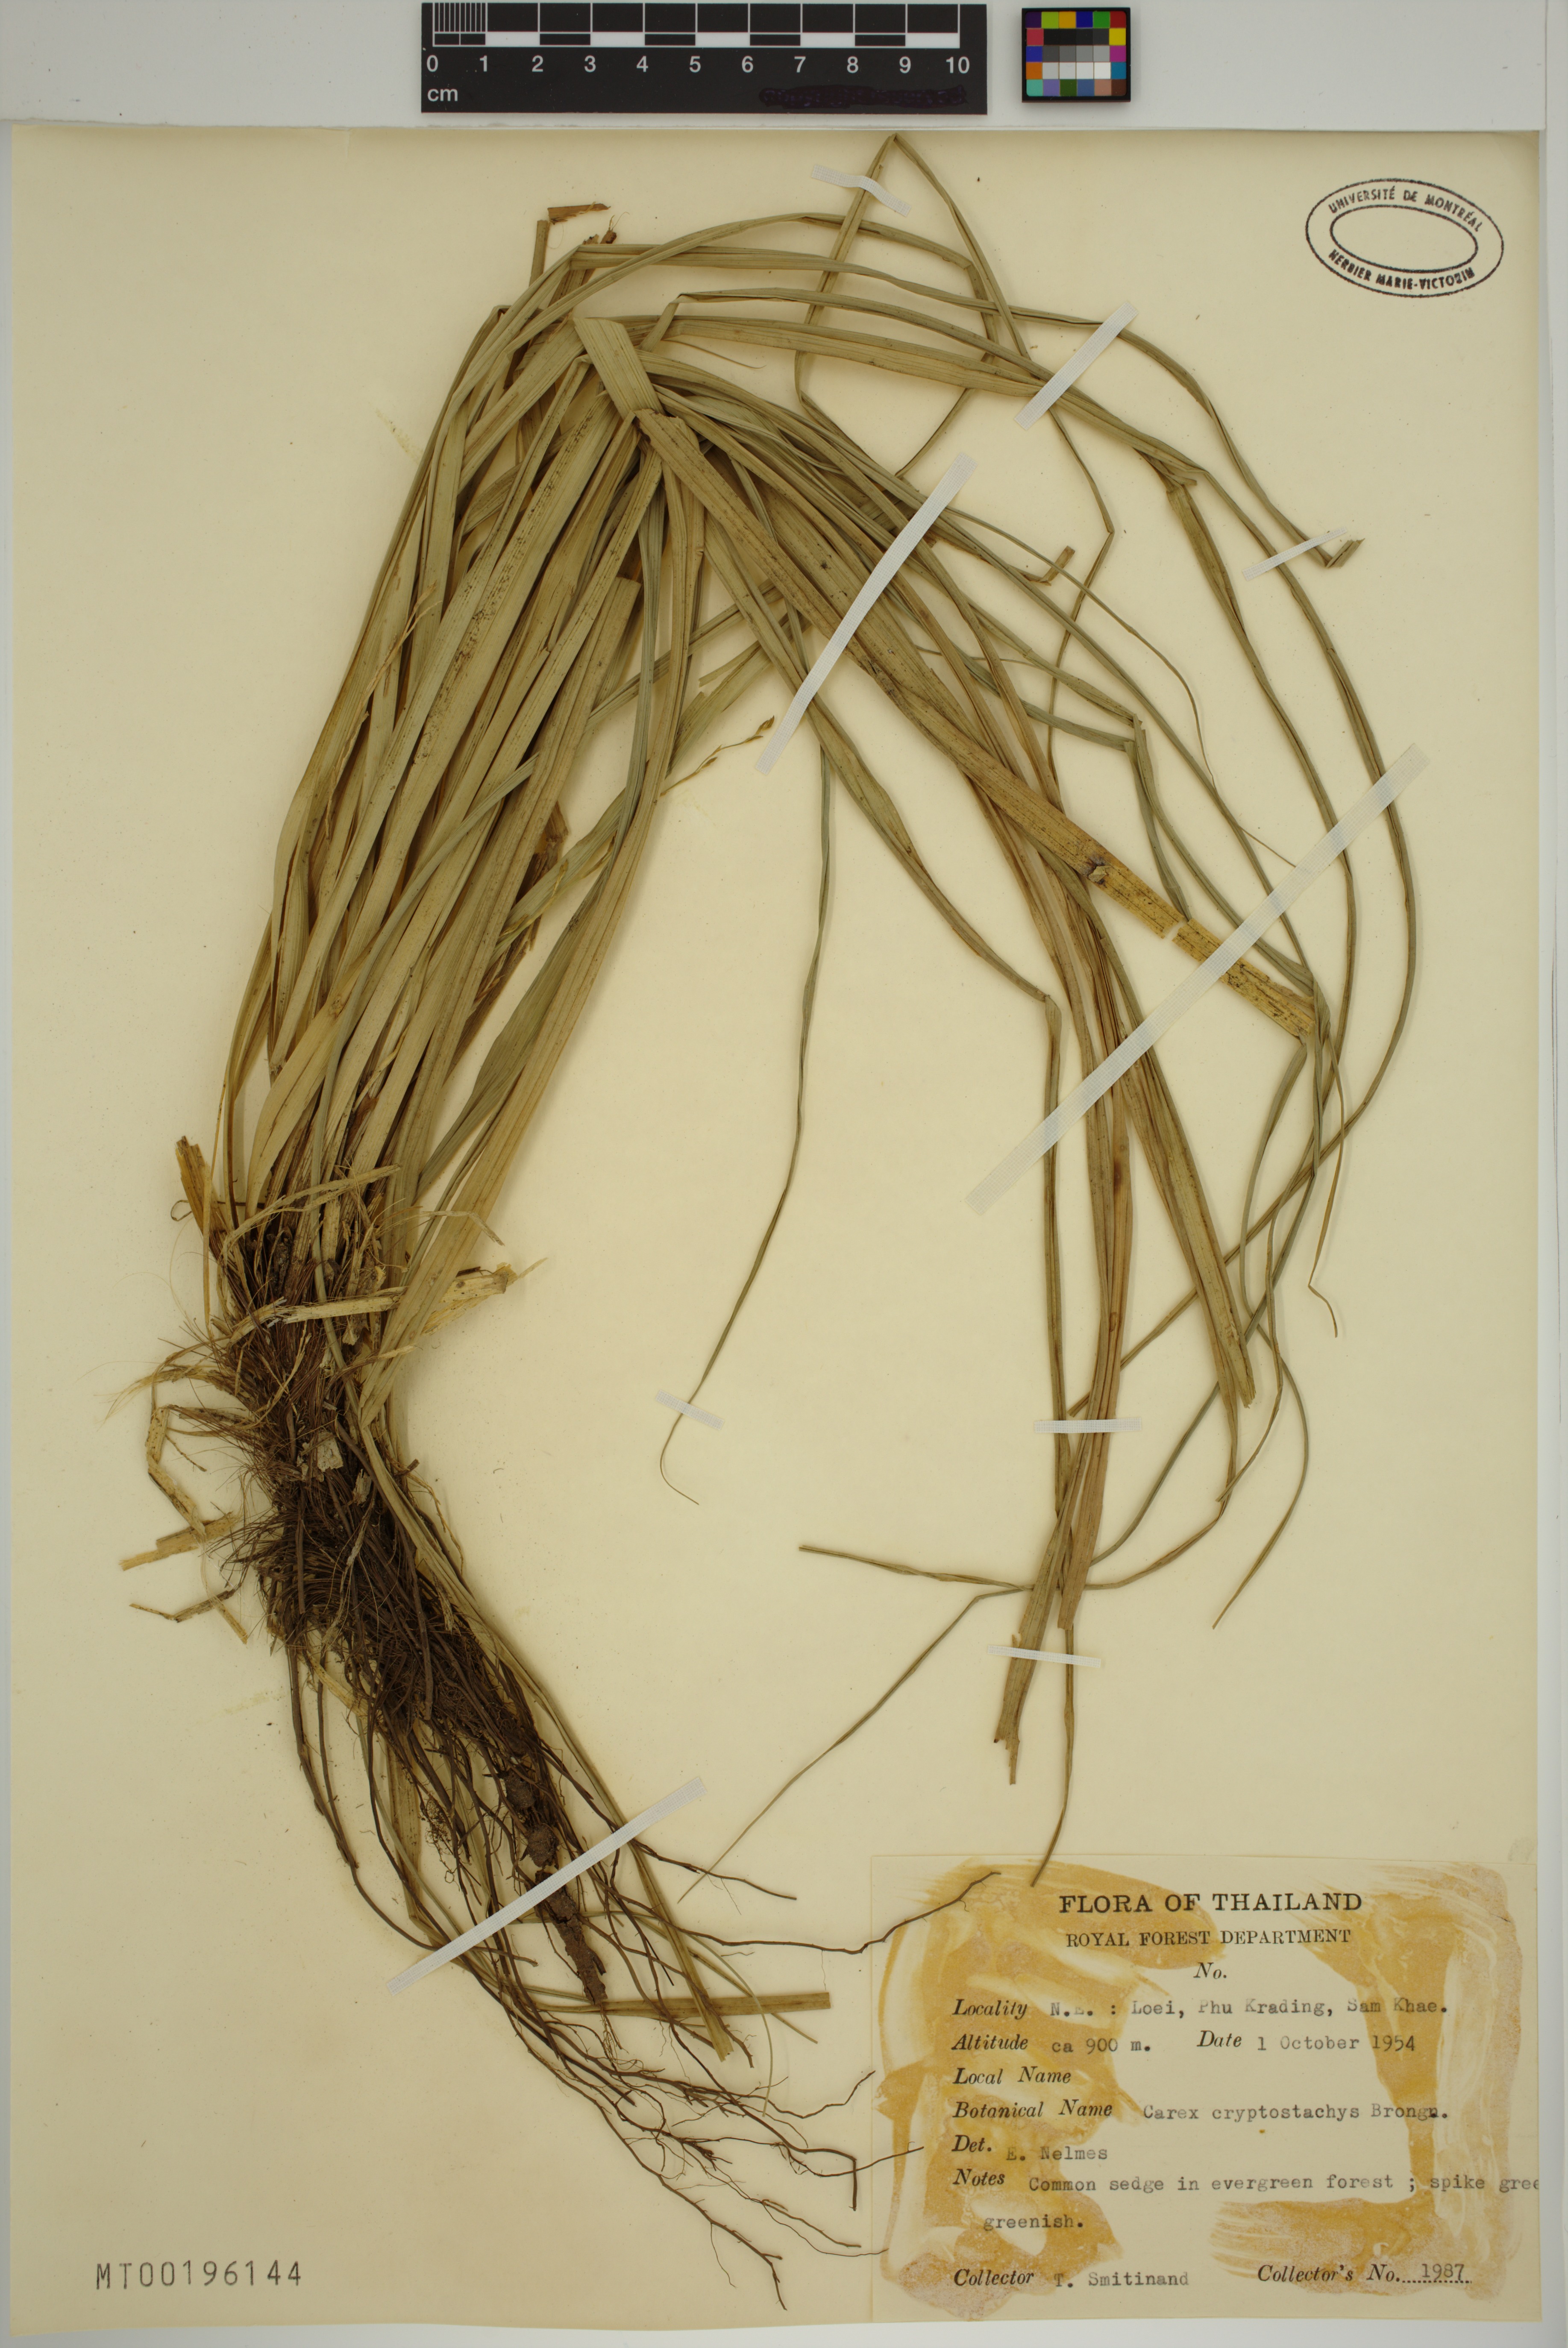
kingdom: Plantae
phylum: Tracheophyta
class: Liliopsida
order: Poales
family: Cyperaceae
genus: Carex
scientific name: Carex cryptostachys
